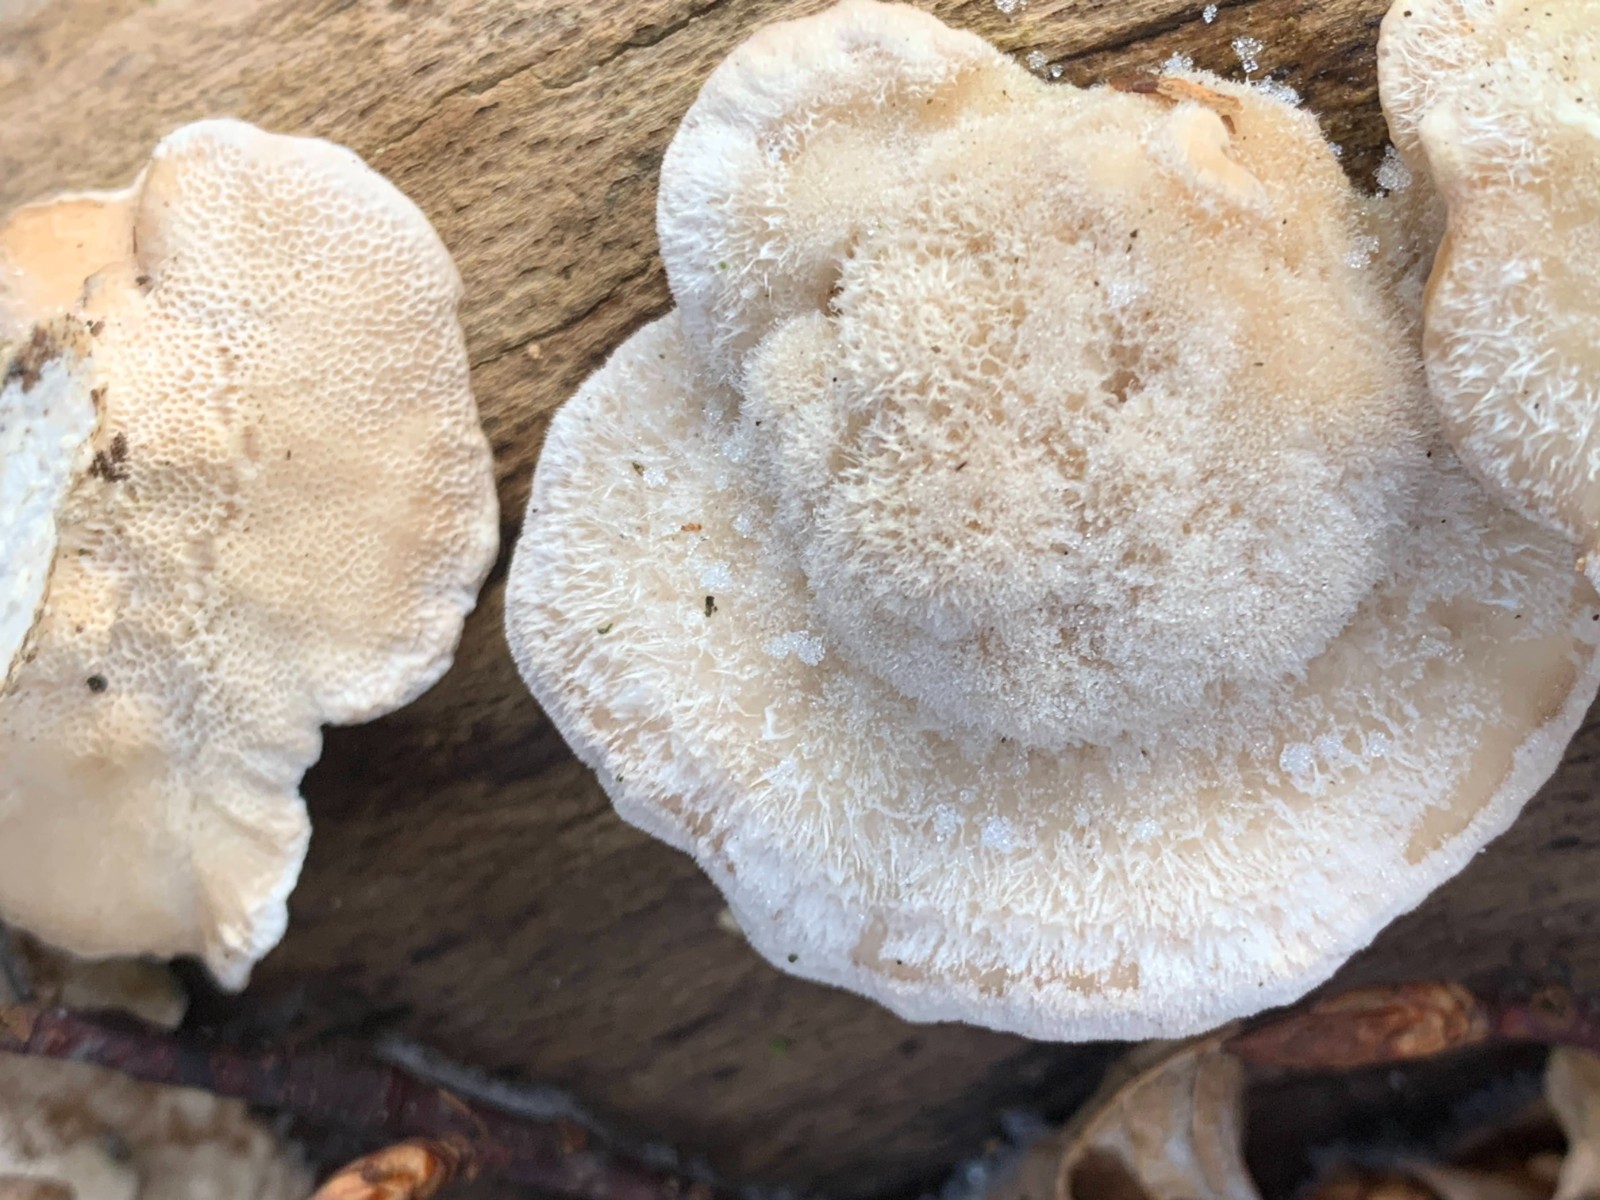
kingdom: Fungi
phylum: Basidiomycota
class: Agaricomycetes
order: Polyporales
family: Polyporaceae
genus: Trametes
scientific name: Trametes hirsuta
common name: håret læderporesvamp
